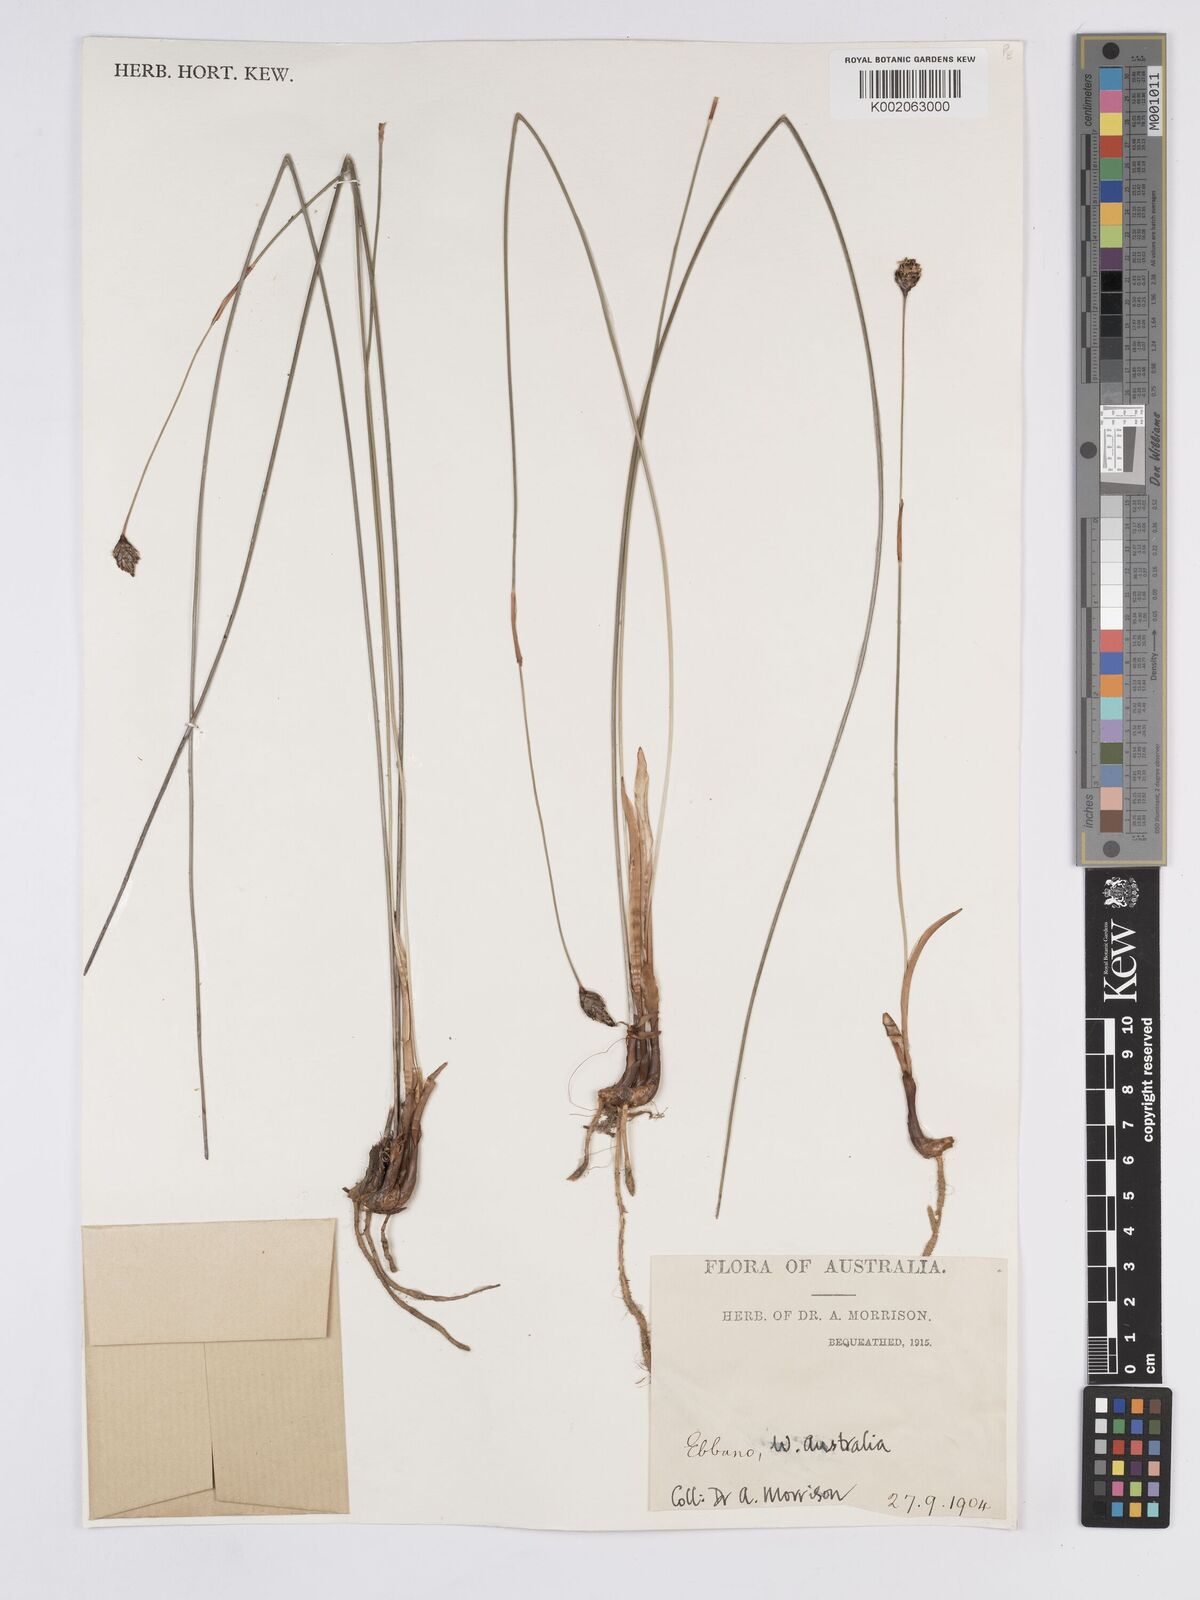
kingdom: Plantae
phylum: Tracheophyta
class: Liliopsida
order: Poales
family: Xyridaceae
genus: Xyris
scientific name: Xyris
